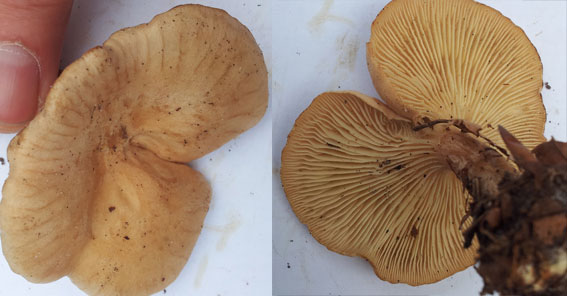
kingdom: Fungi
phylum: Basidiomycota
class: Agaricomycetes
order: Agaricales
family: Tricholomataceae
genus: Clitocybe
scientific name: Clitocybe costata
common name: brunstokket tragthat
